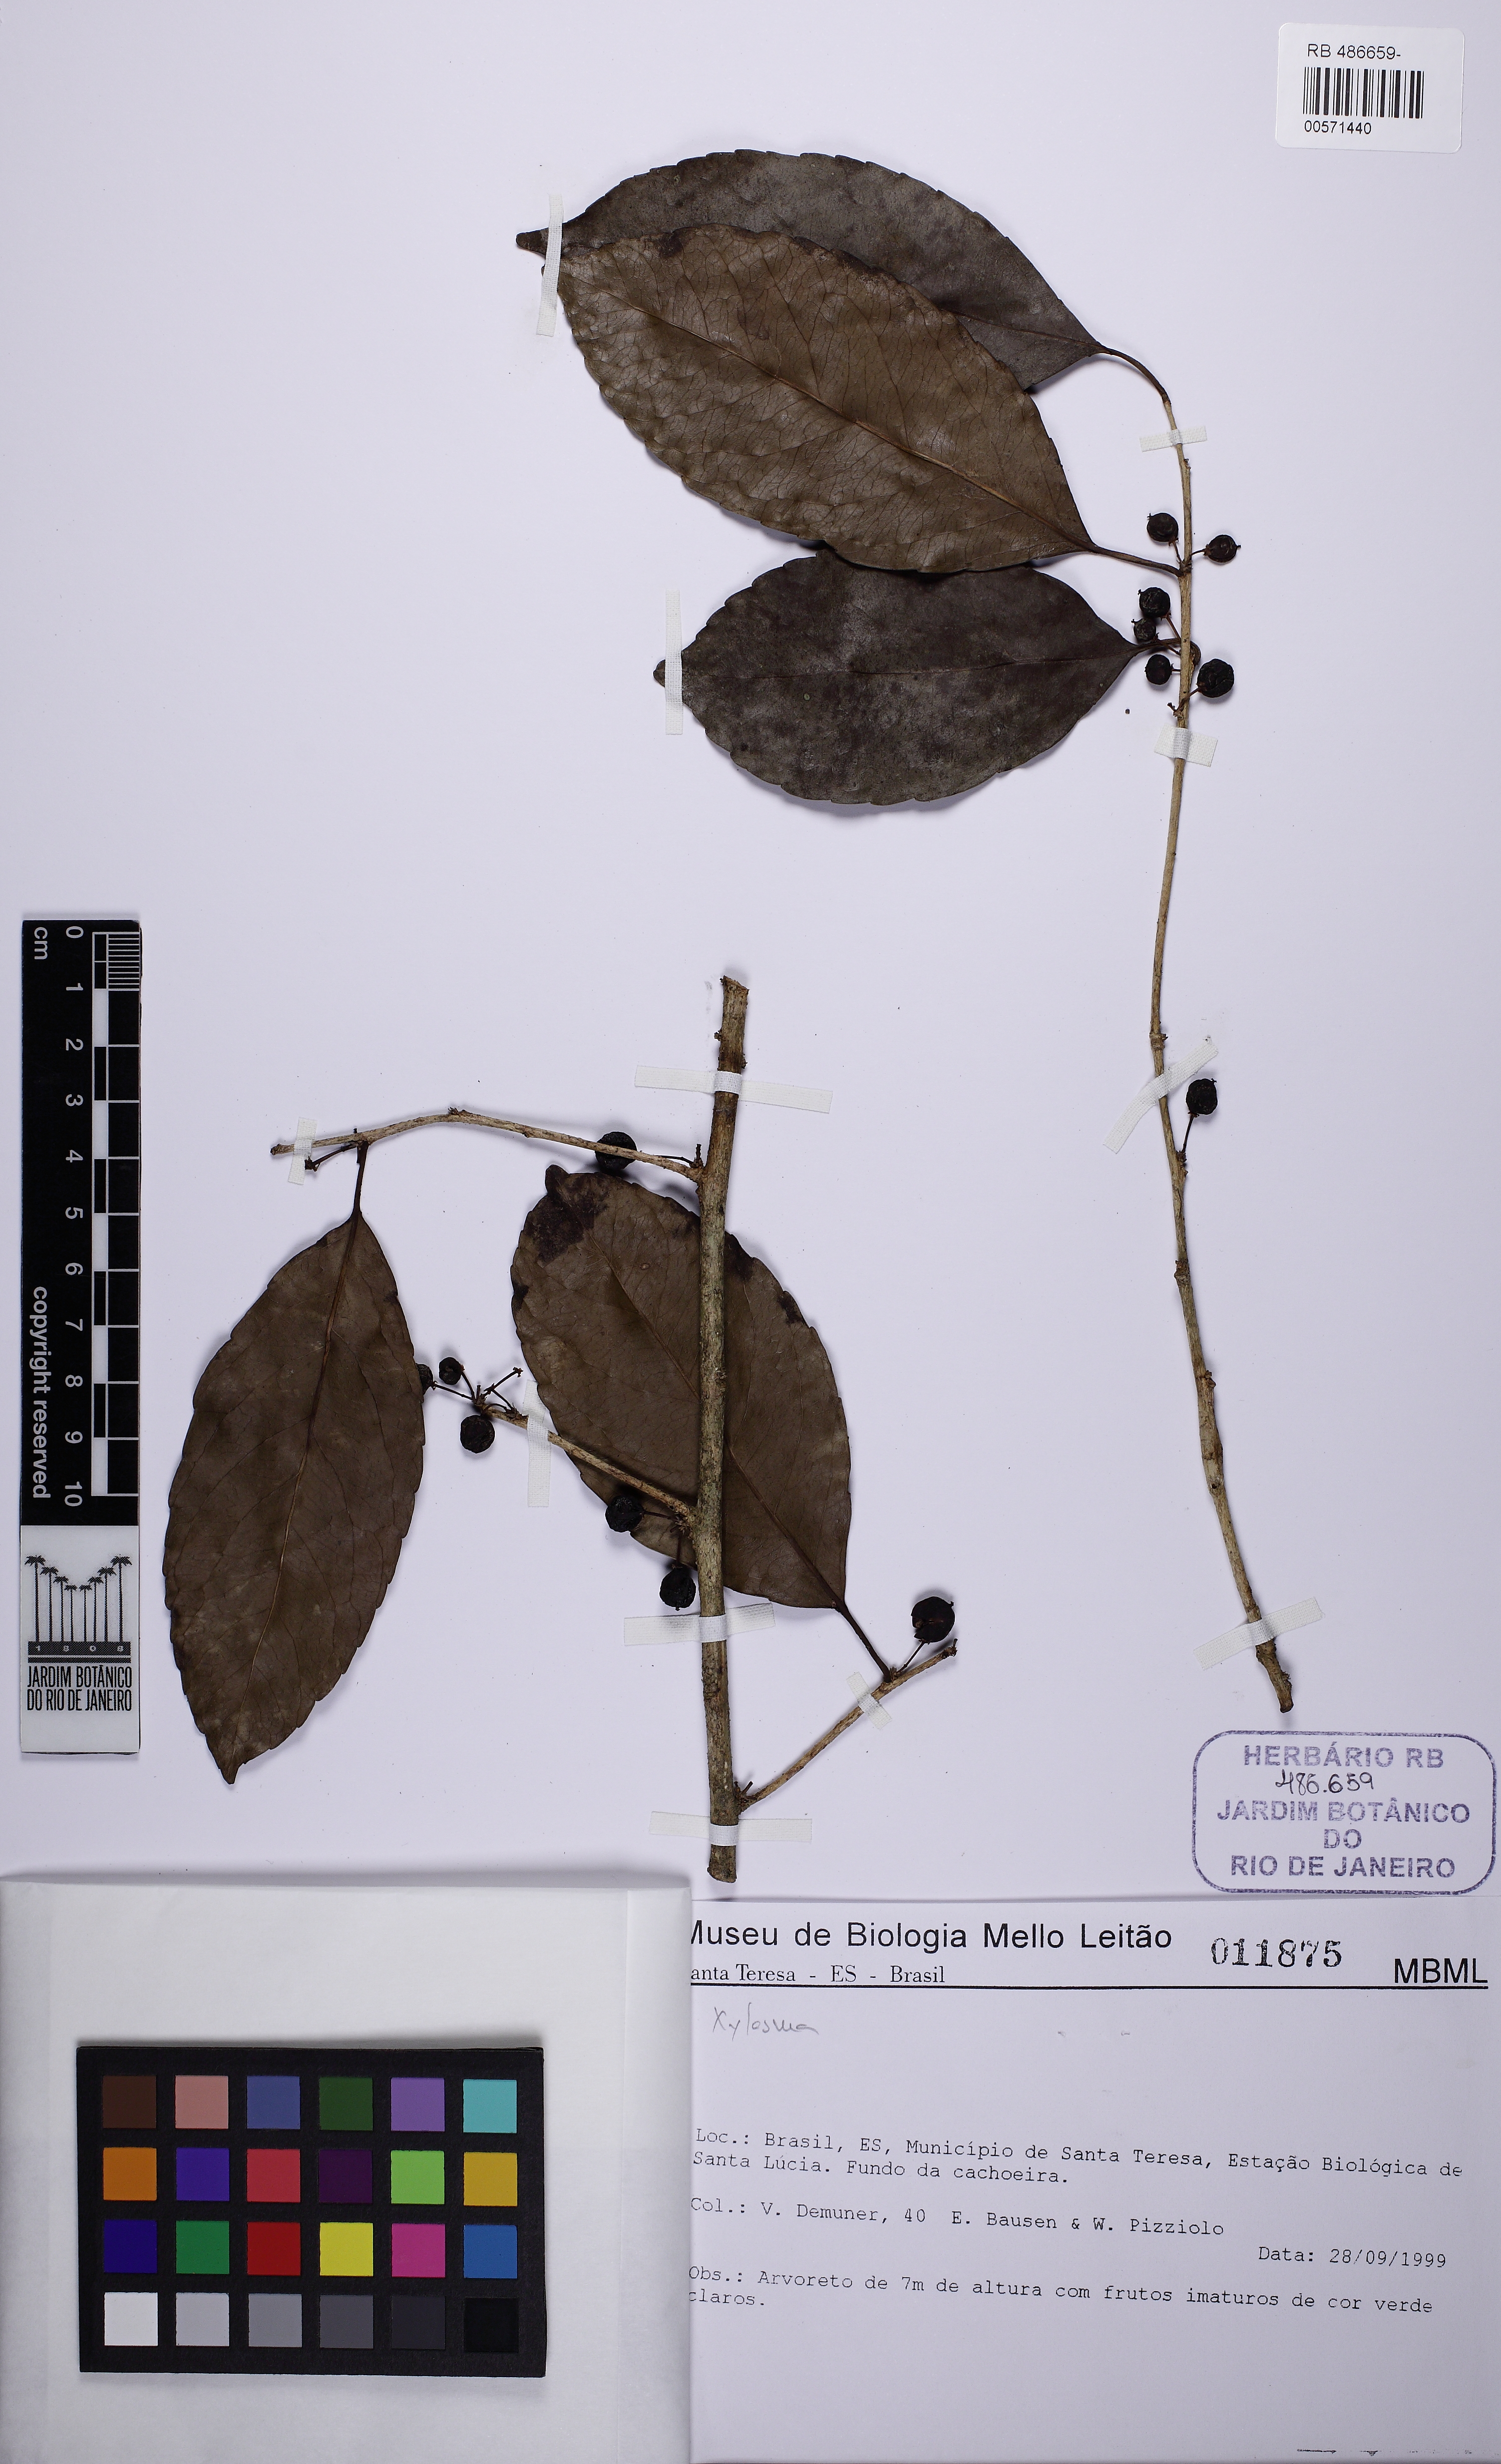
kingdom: Plantae
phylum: Tracheophyta
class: Magnoliopsida
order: Malpighiales
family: Salicaceae
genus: Xylosma
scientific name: Xylosma glaberrima
